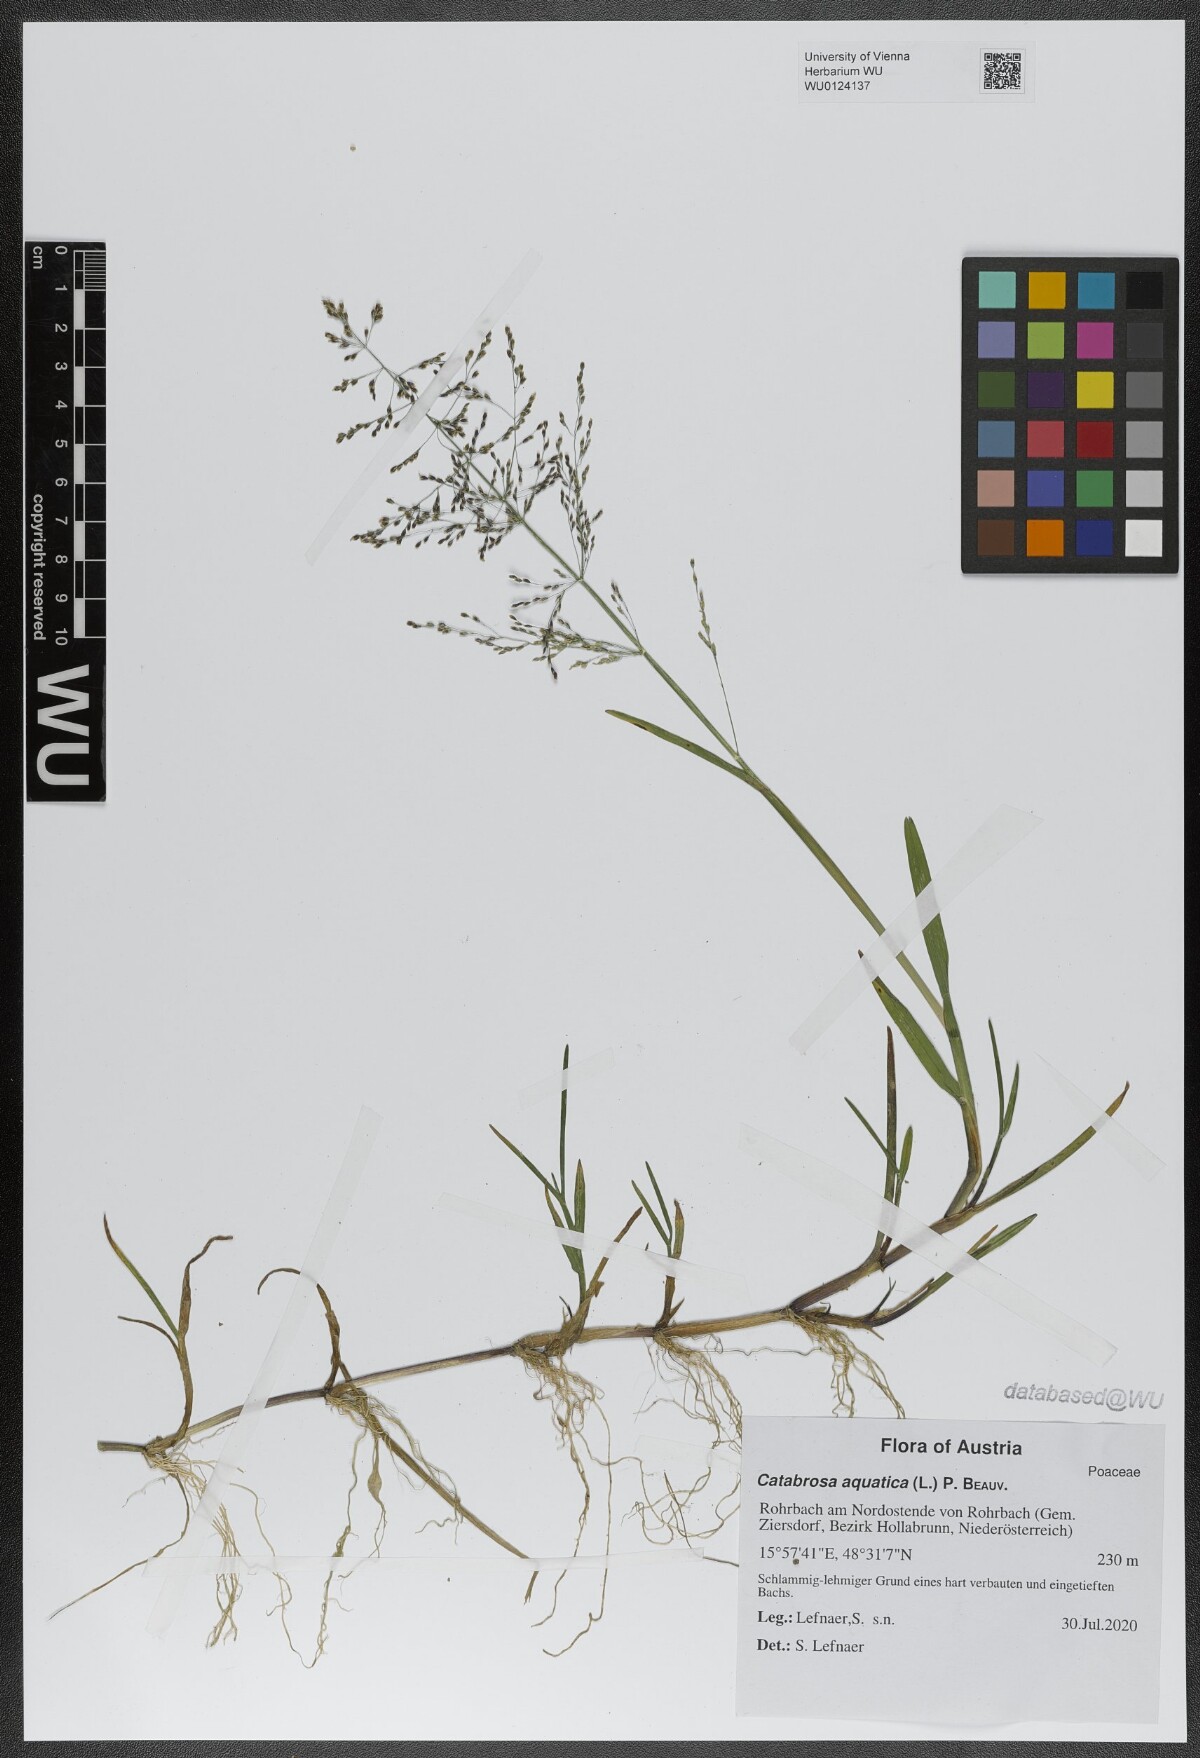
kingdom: Plantae
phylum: Tracheophyta
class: Liliopsida
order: Poales
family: Poaceae
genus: Catabrosa
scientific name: Catabrosa aquatica
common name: Whorl-grass
